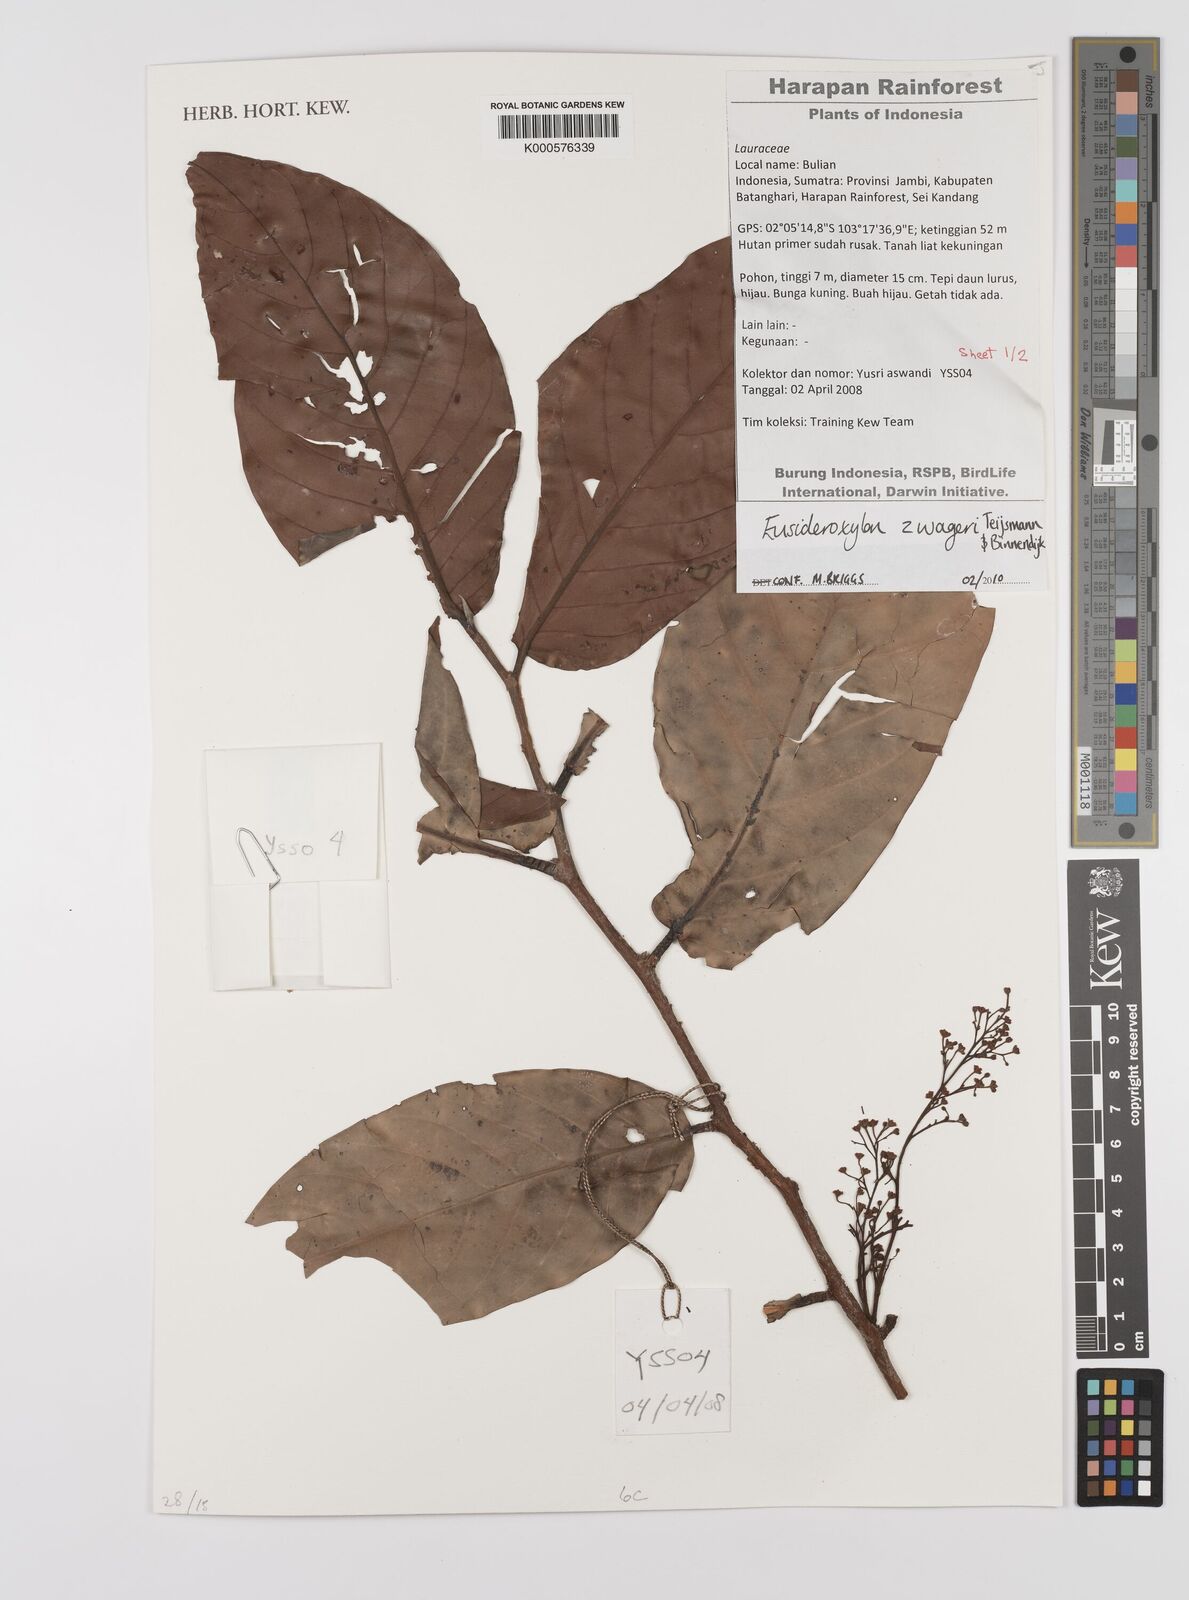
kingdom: Plantae
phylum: Tracheophyta
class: Magnoliopsida
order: Laurales
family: Lauraceae
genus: Eusideroxylon
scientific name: Eusideroxylon zwageri
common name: Borneo ironwood
